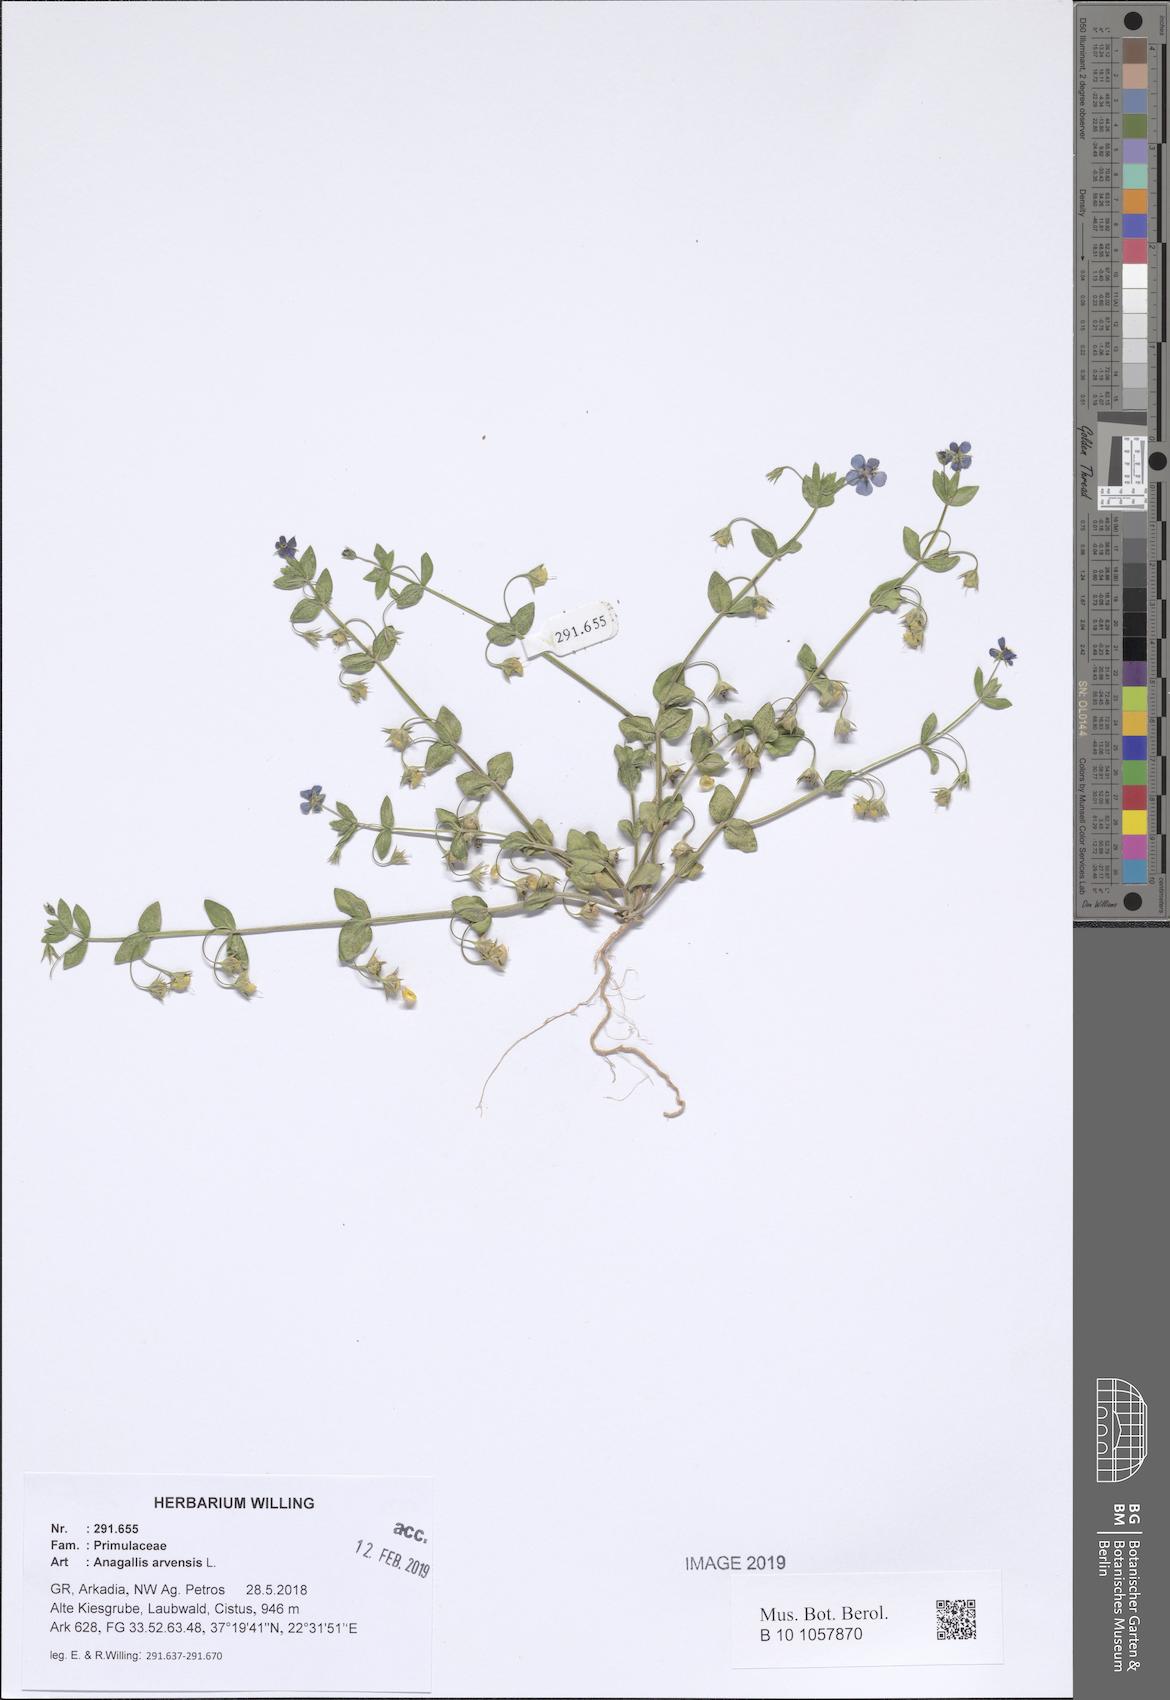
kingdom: Plantae
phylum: Tracheophyta
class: Magnoliopsida
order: Ericales
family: Primulaceae
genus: Lysimachia
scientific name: Lysimachia arvensis
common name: Scarlet pimpernel
